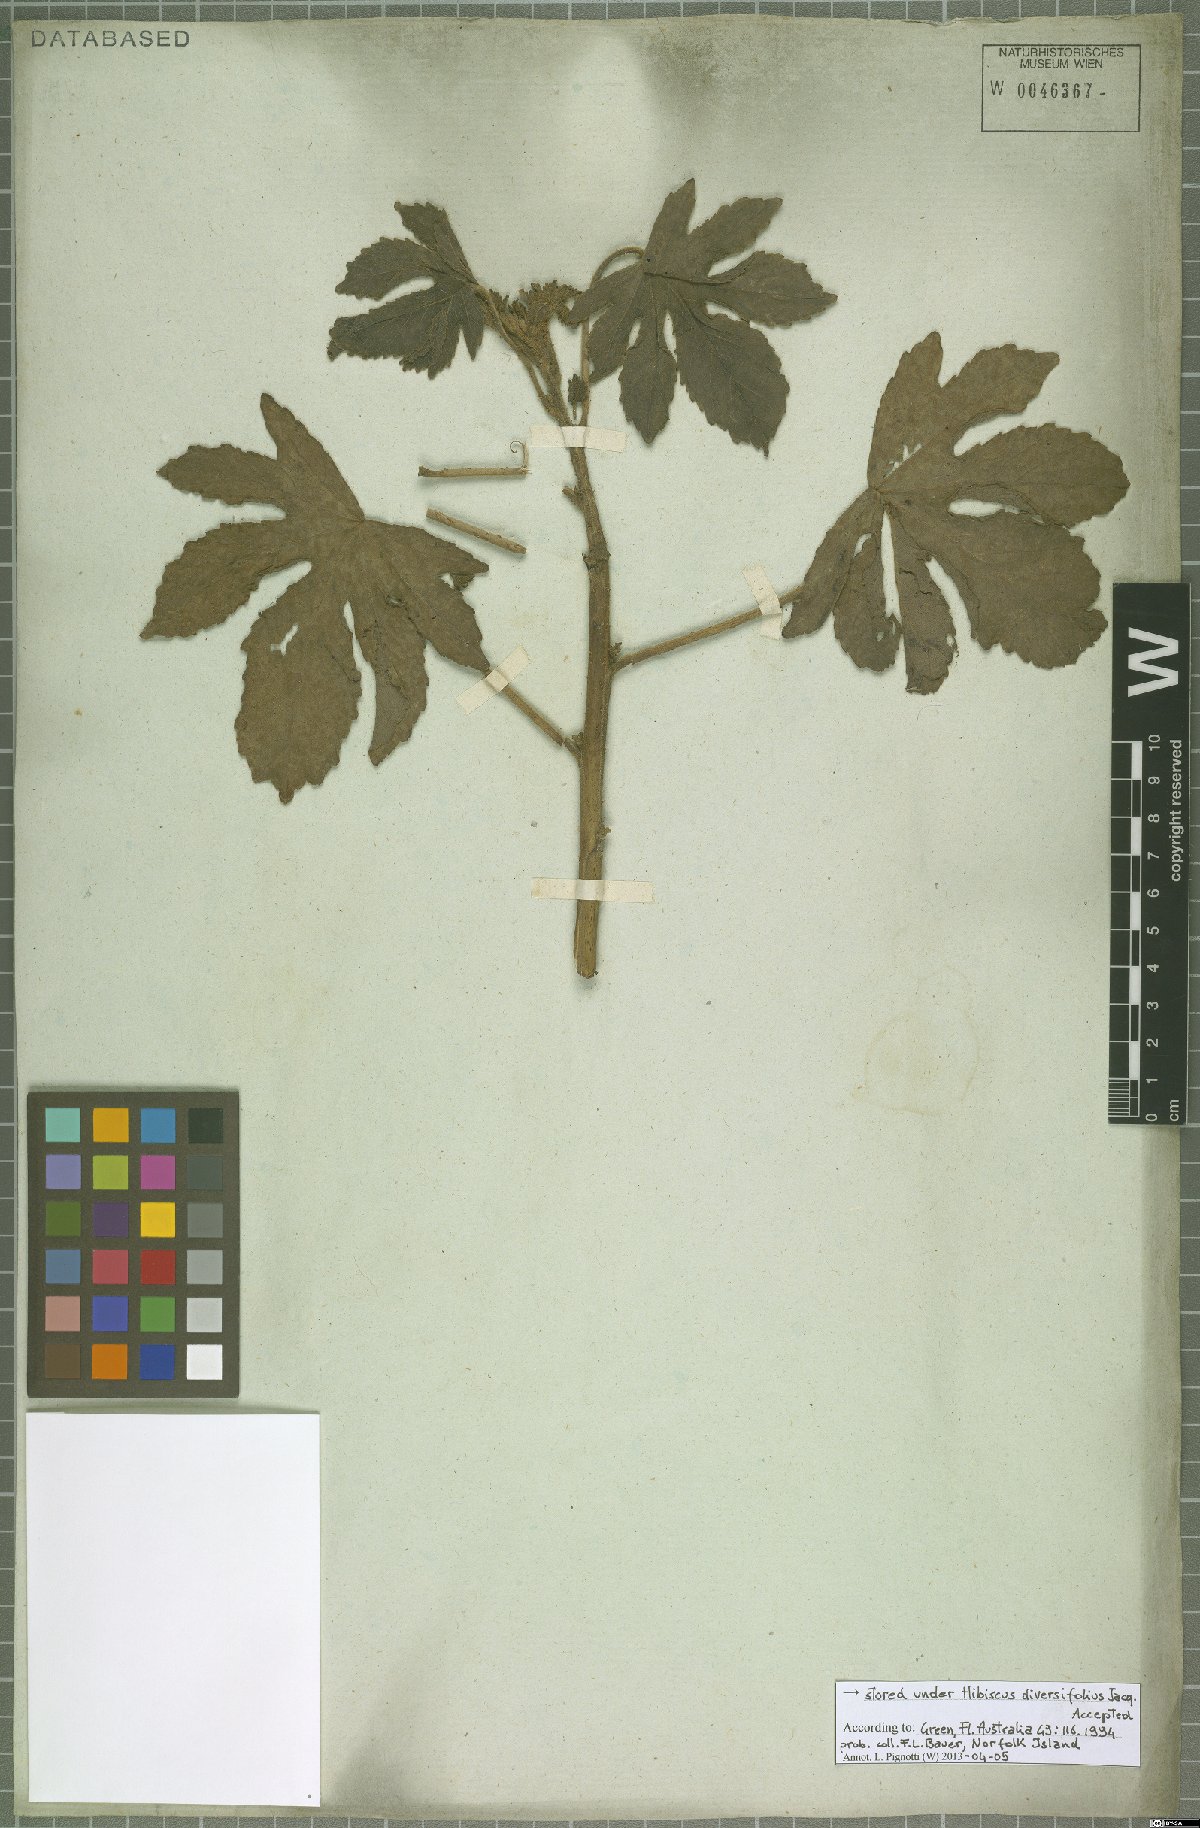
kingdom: Plantae
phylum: Tracheophyta
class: Magnoliopsida
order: Malvales
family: Malvaceae
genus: Hibiscus
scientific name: Hibiscus diversifolius
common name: Cape hibiscus
